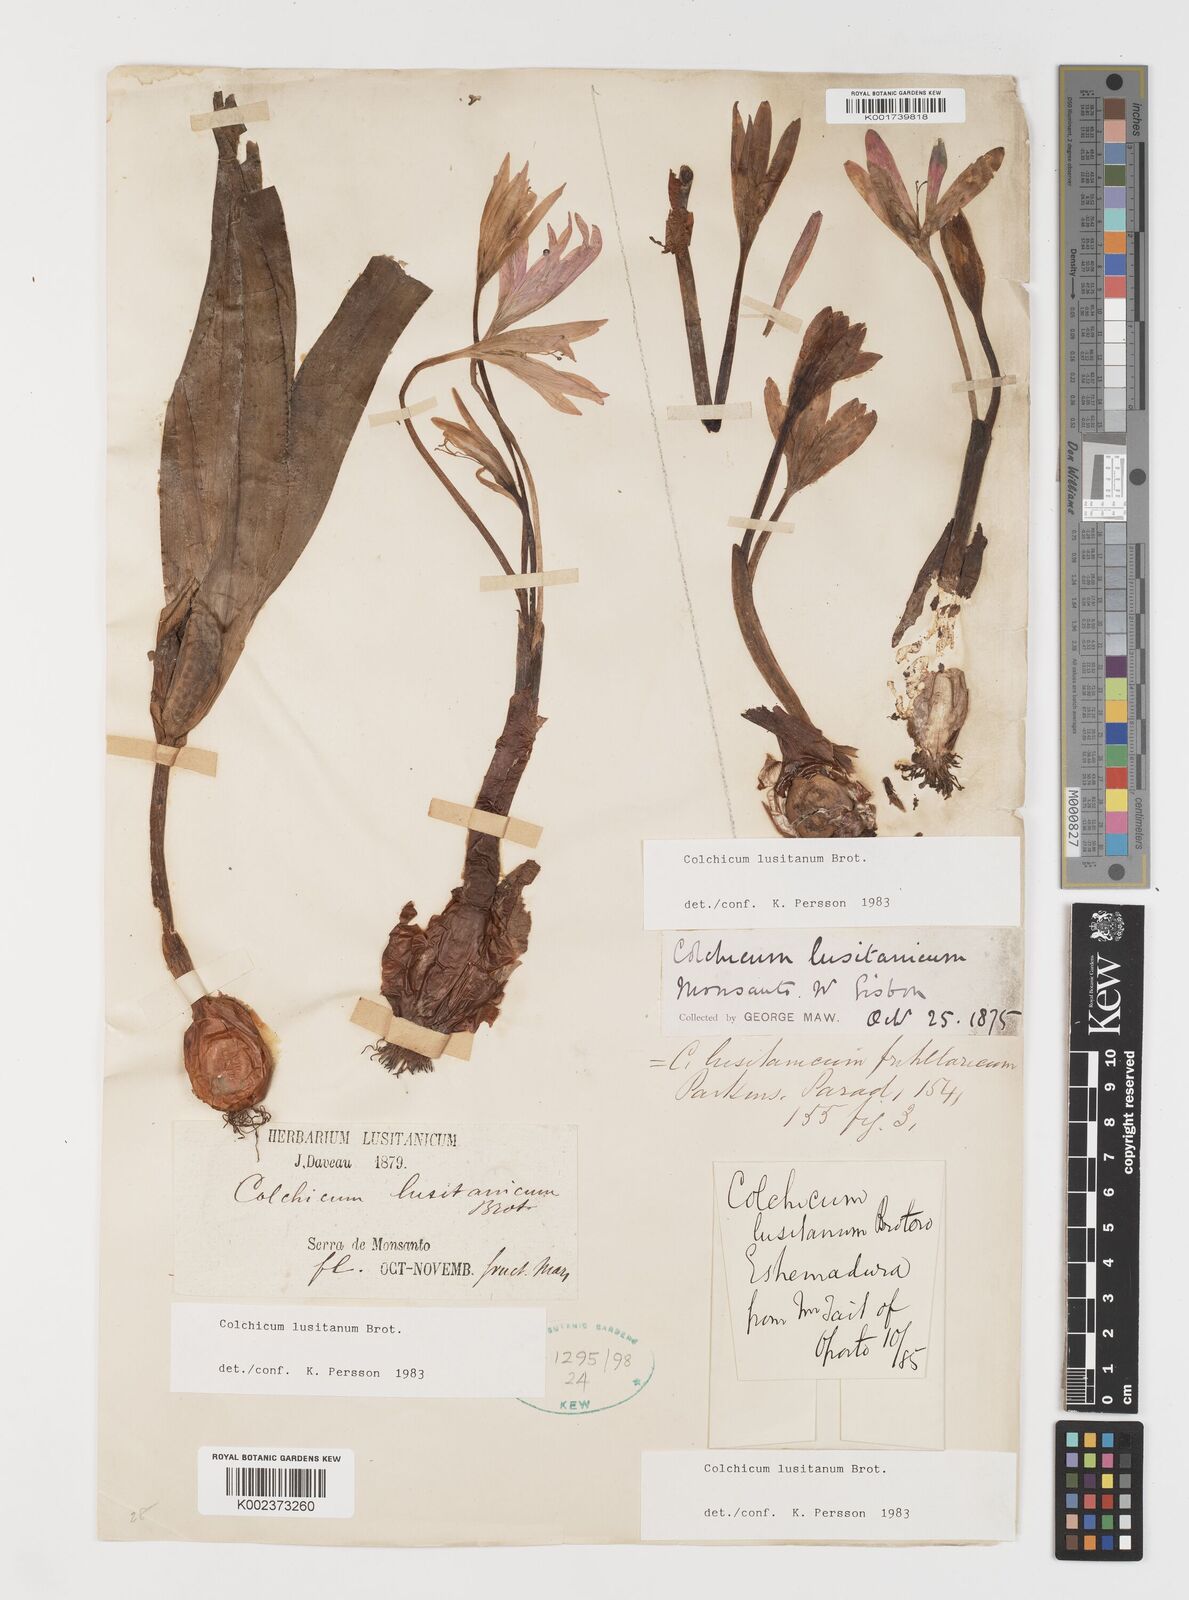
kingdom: Plantae
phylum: Tracheophyta
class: Liliopsida
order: Liliales
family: Colchicaceae
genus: Colchicum
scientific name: Colchicum lusitanum
